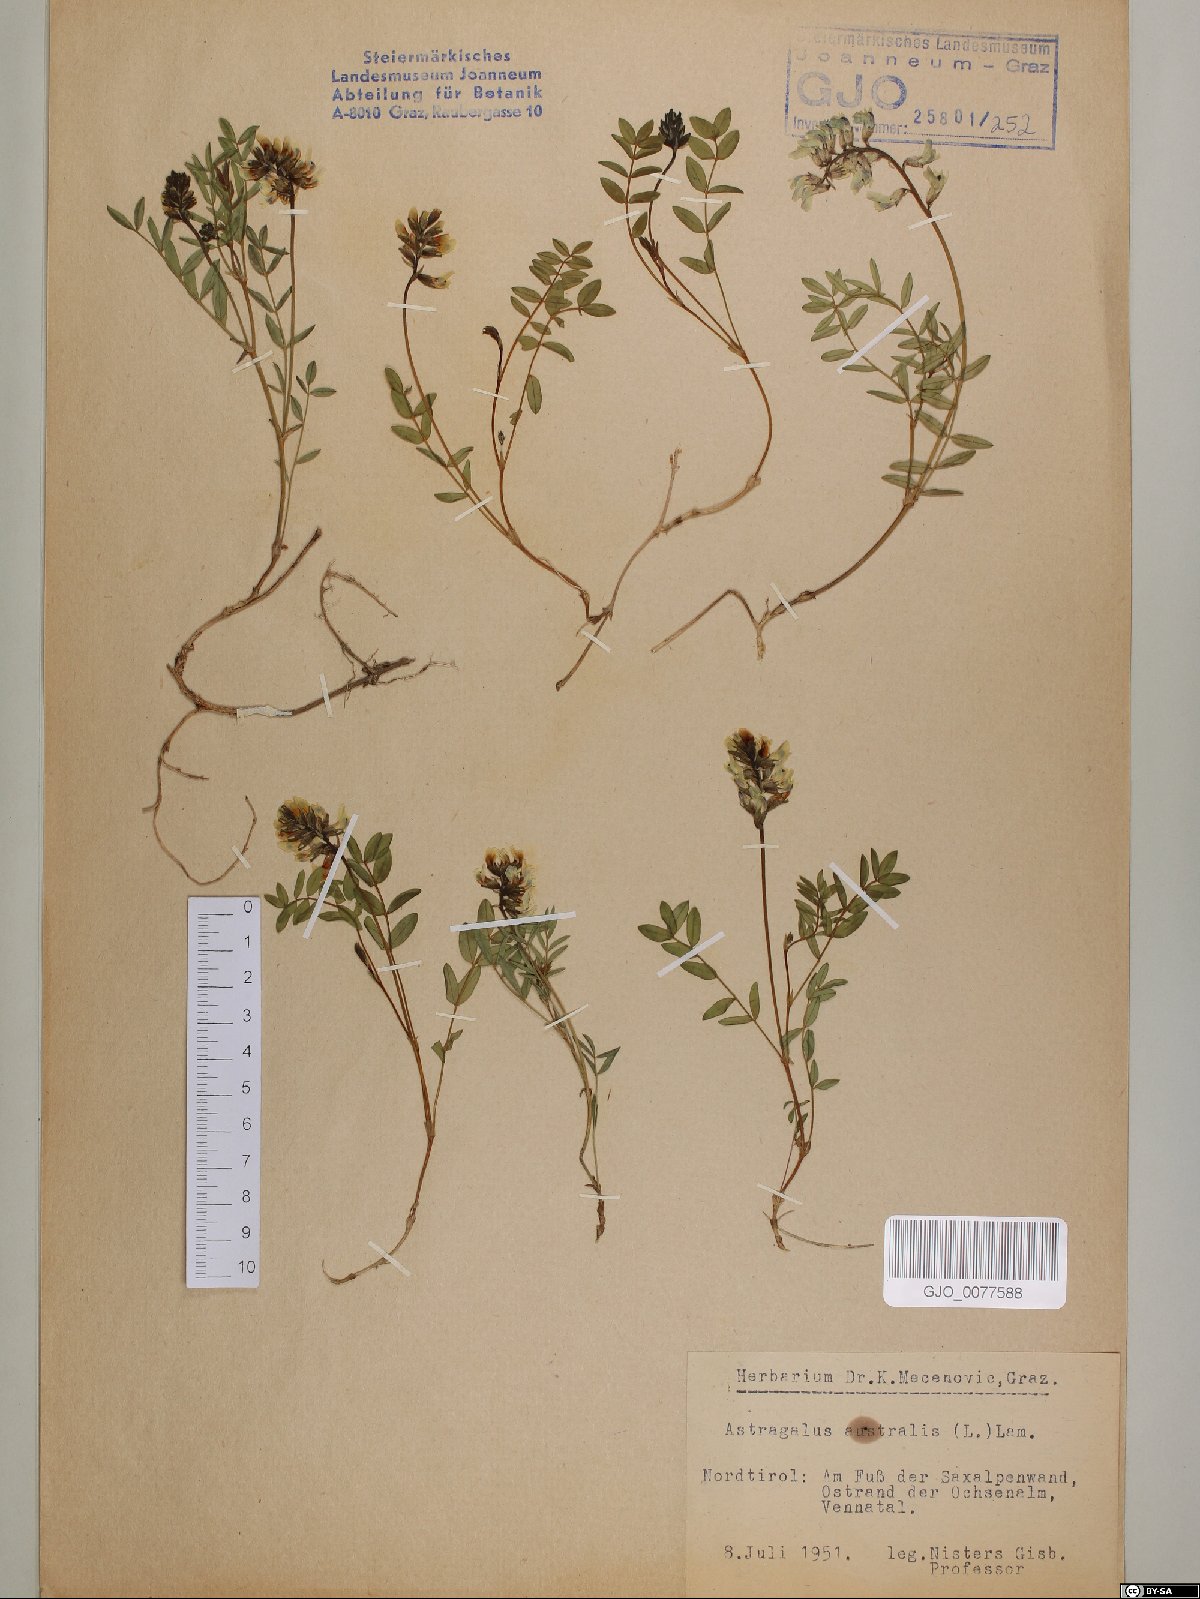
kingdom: Plantae
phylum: Tracheophyta
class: Magnoliopsida
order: Fabales
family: Fabaceae
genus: Astragalus
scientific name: Astragalus australis
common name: Indian milk-vetch
